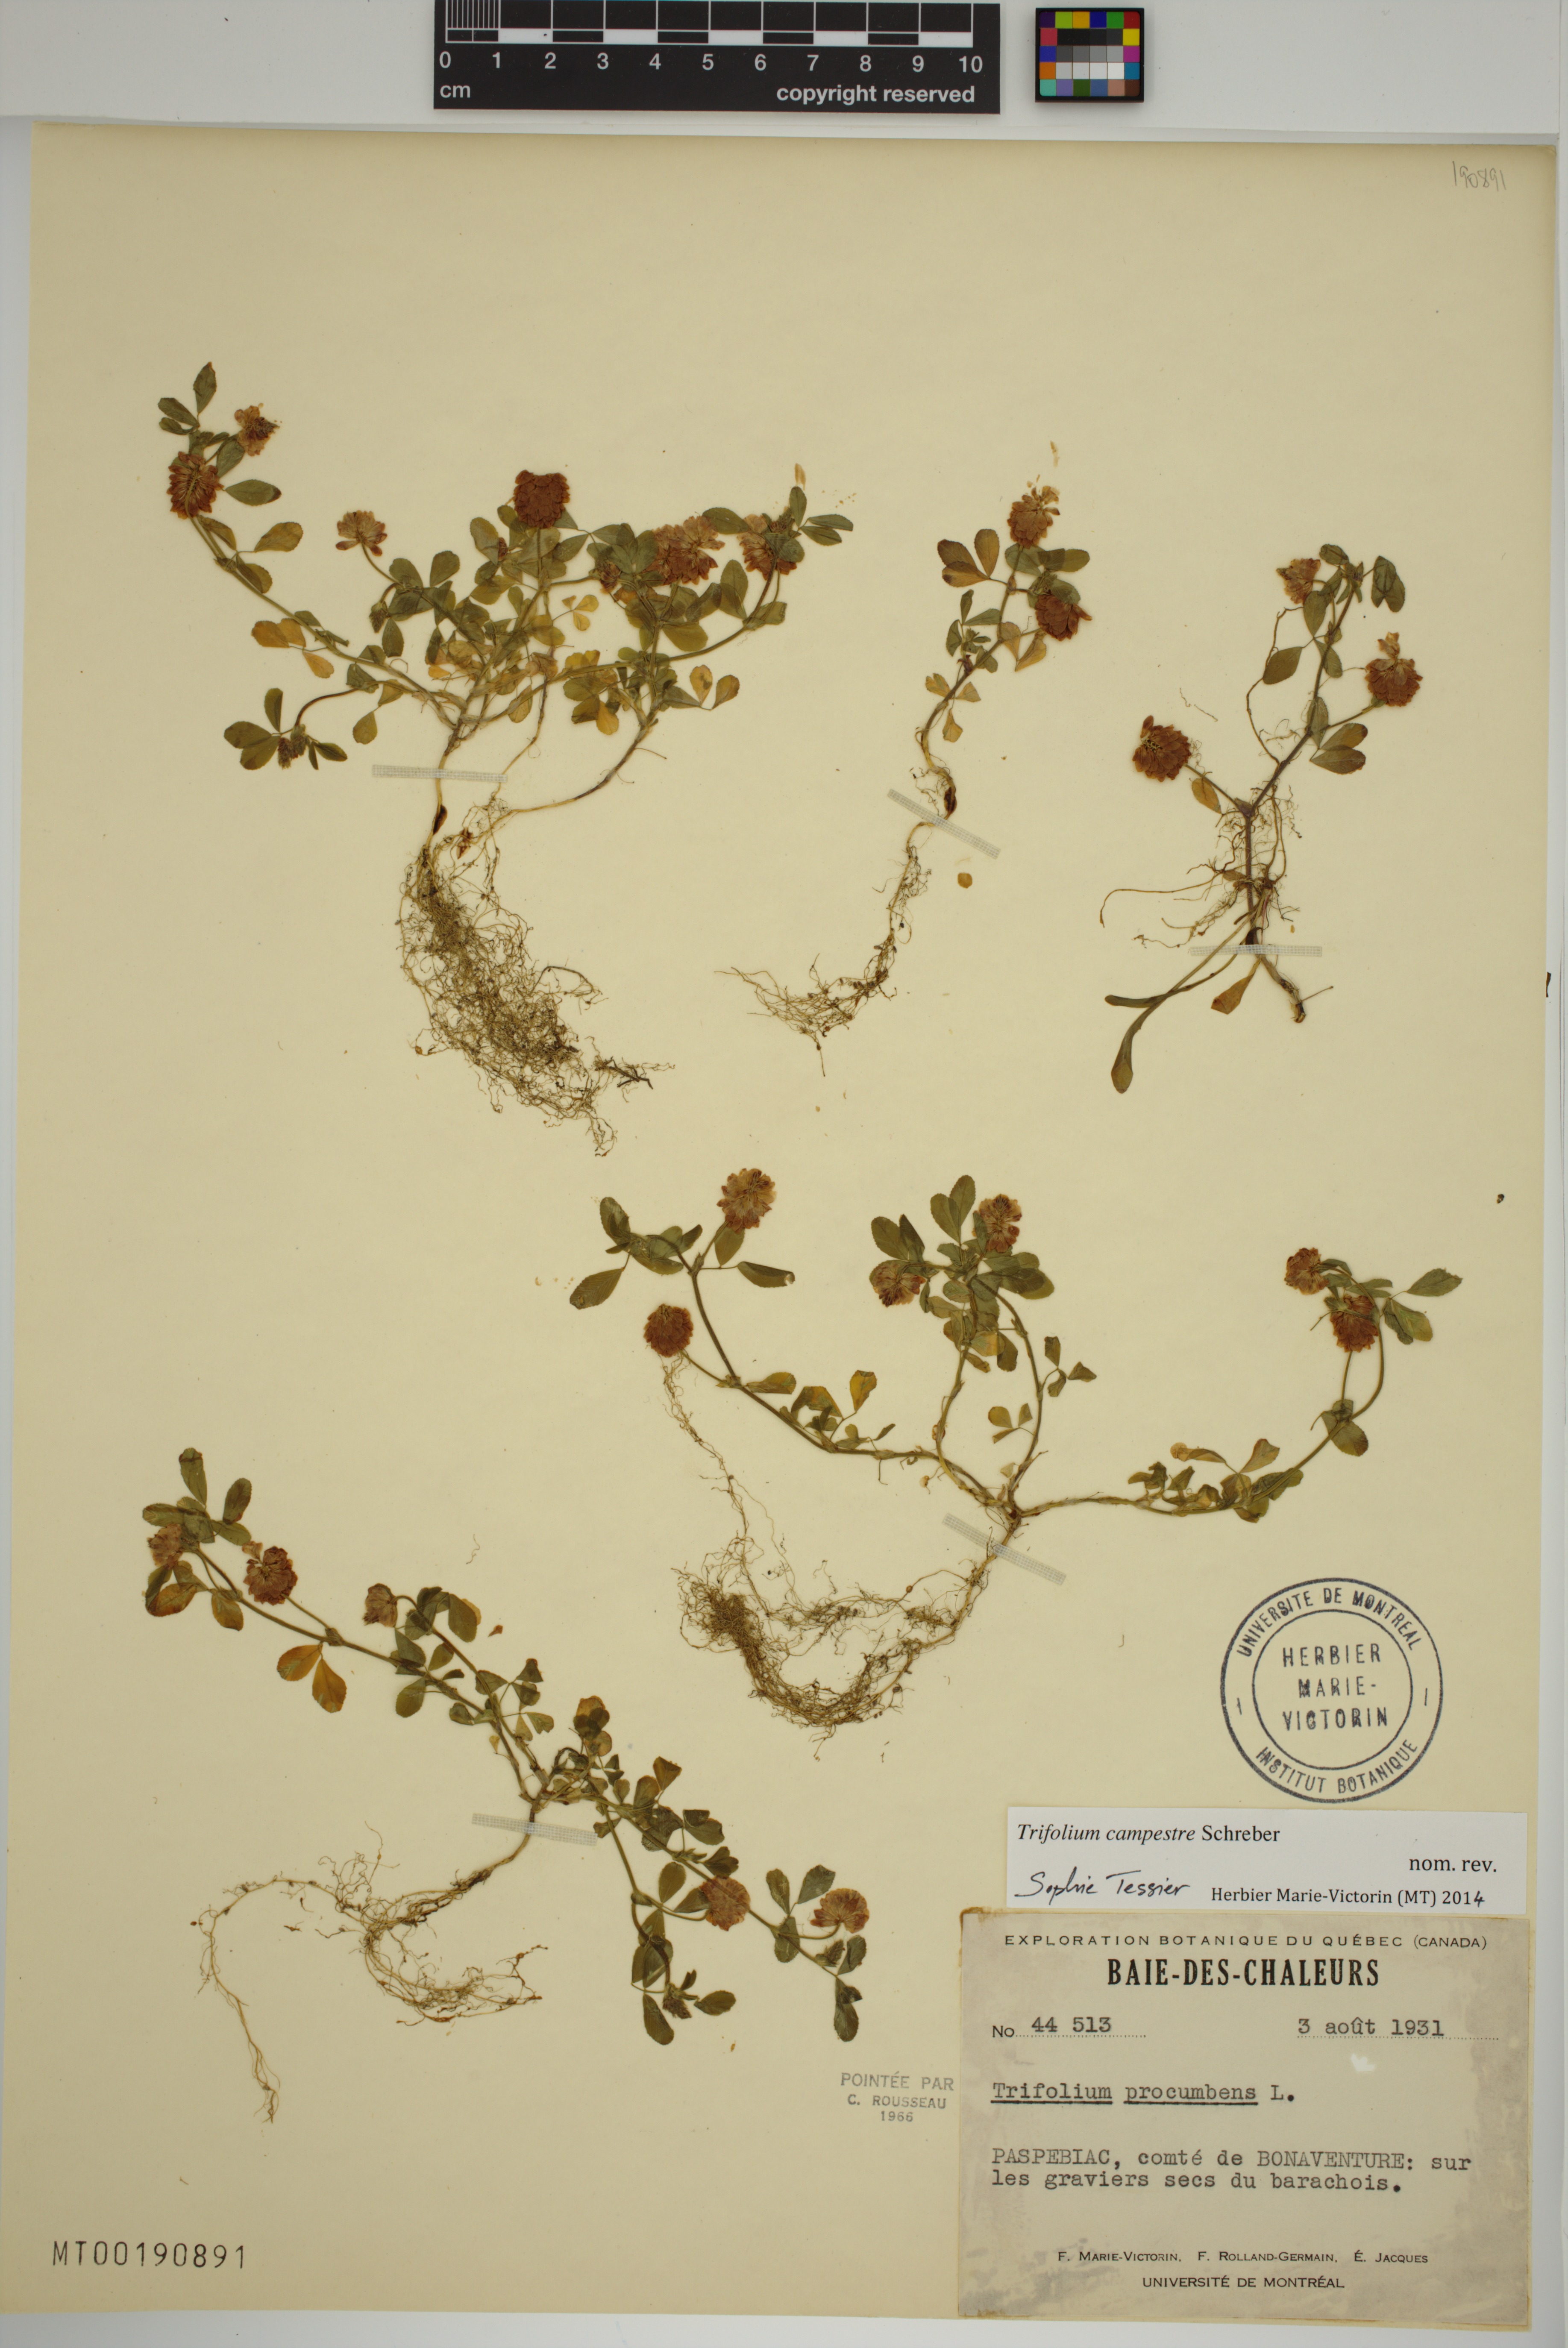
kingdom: Plantae
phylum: Tracheophyta
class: Magnoliopsida
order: Fabales
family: Fabaceae
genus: Trifolium
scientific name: Trifolium campestre
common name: Field clover
